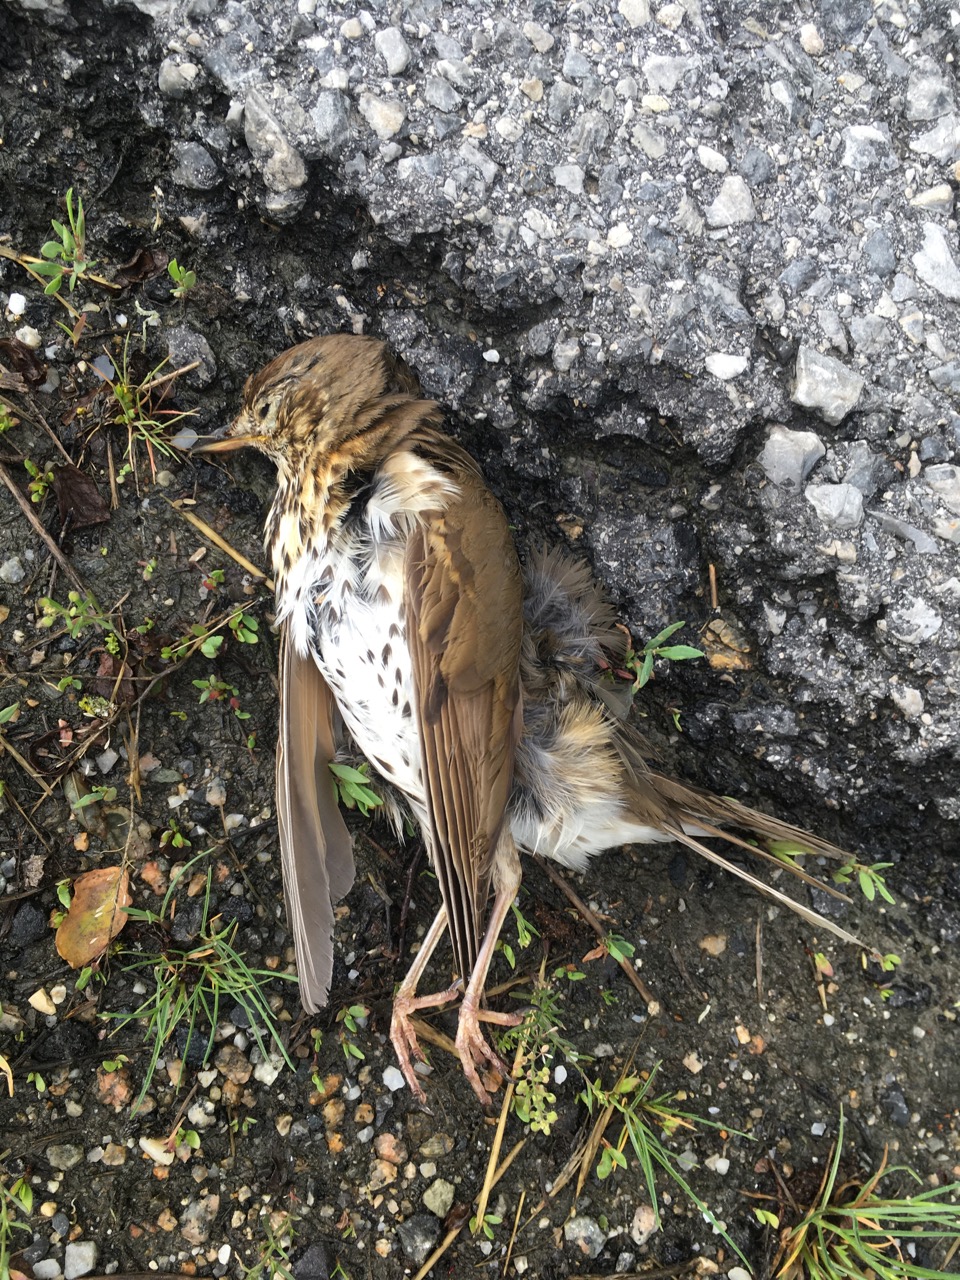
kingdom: Animalia
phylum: Chordata
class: Aves
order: Passeriformes
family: Turdidae
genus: Turdus
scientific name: Turdus philomelos
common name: Song thrush
